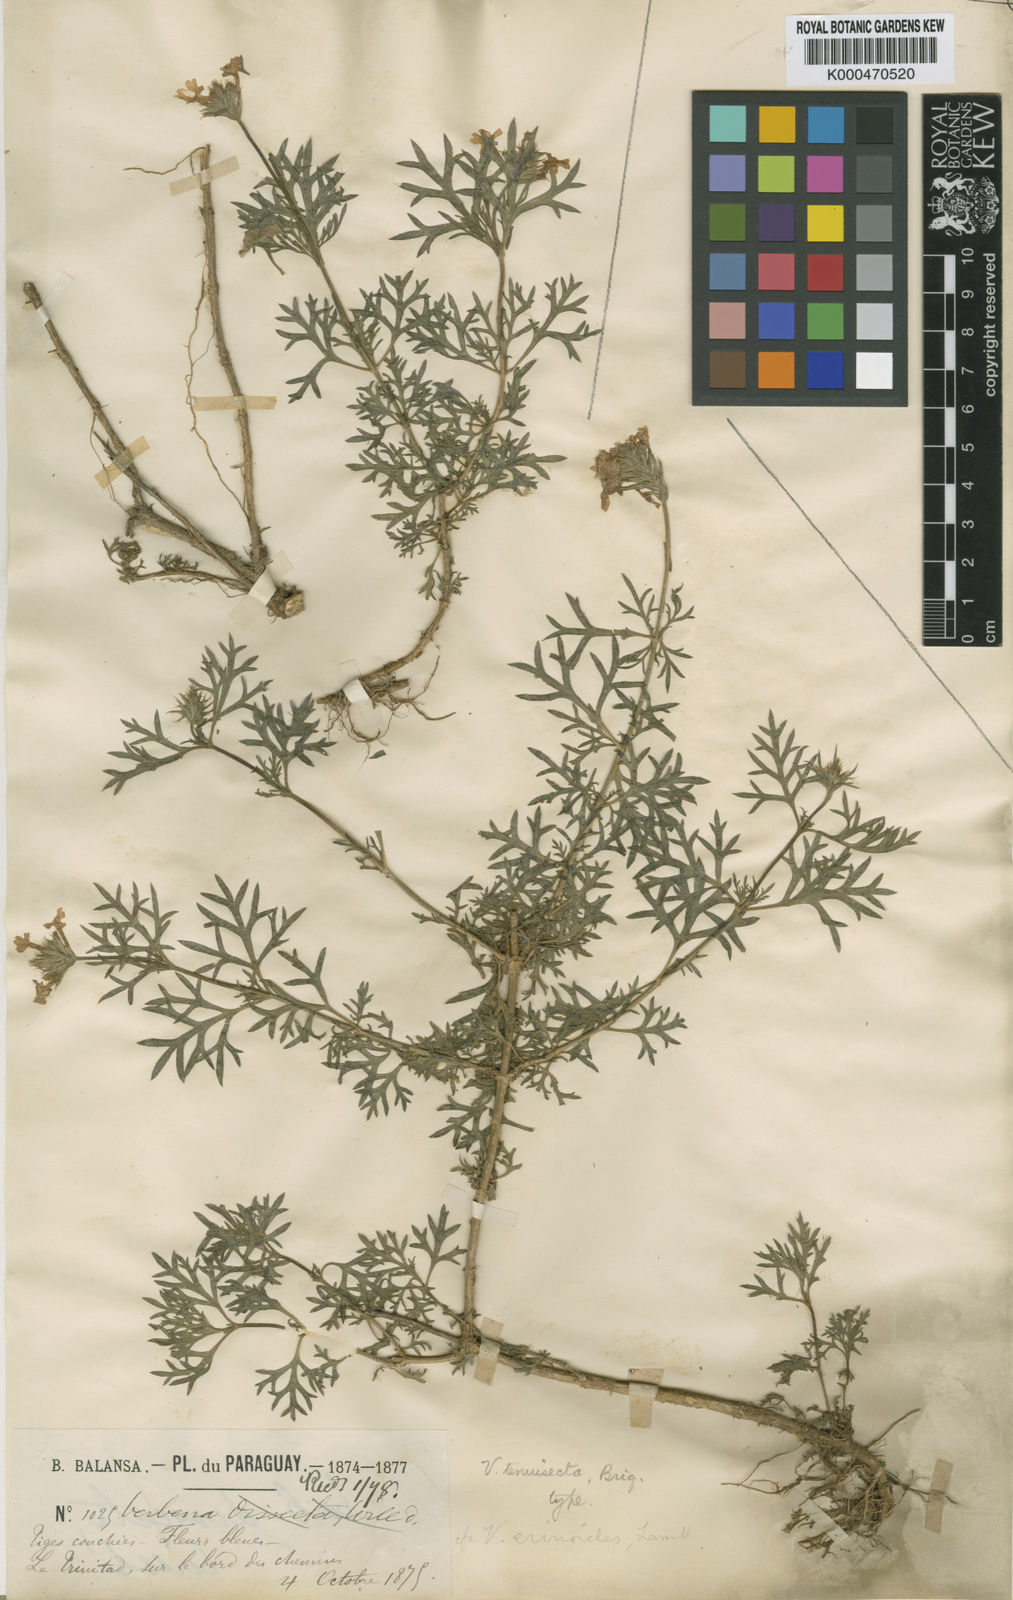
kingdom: Plantae
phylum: Tracheophyta
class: Magnoliopsida
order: Lamiales
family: Verbenaceae
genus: Verbena
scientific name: Verbena aristigera
